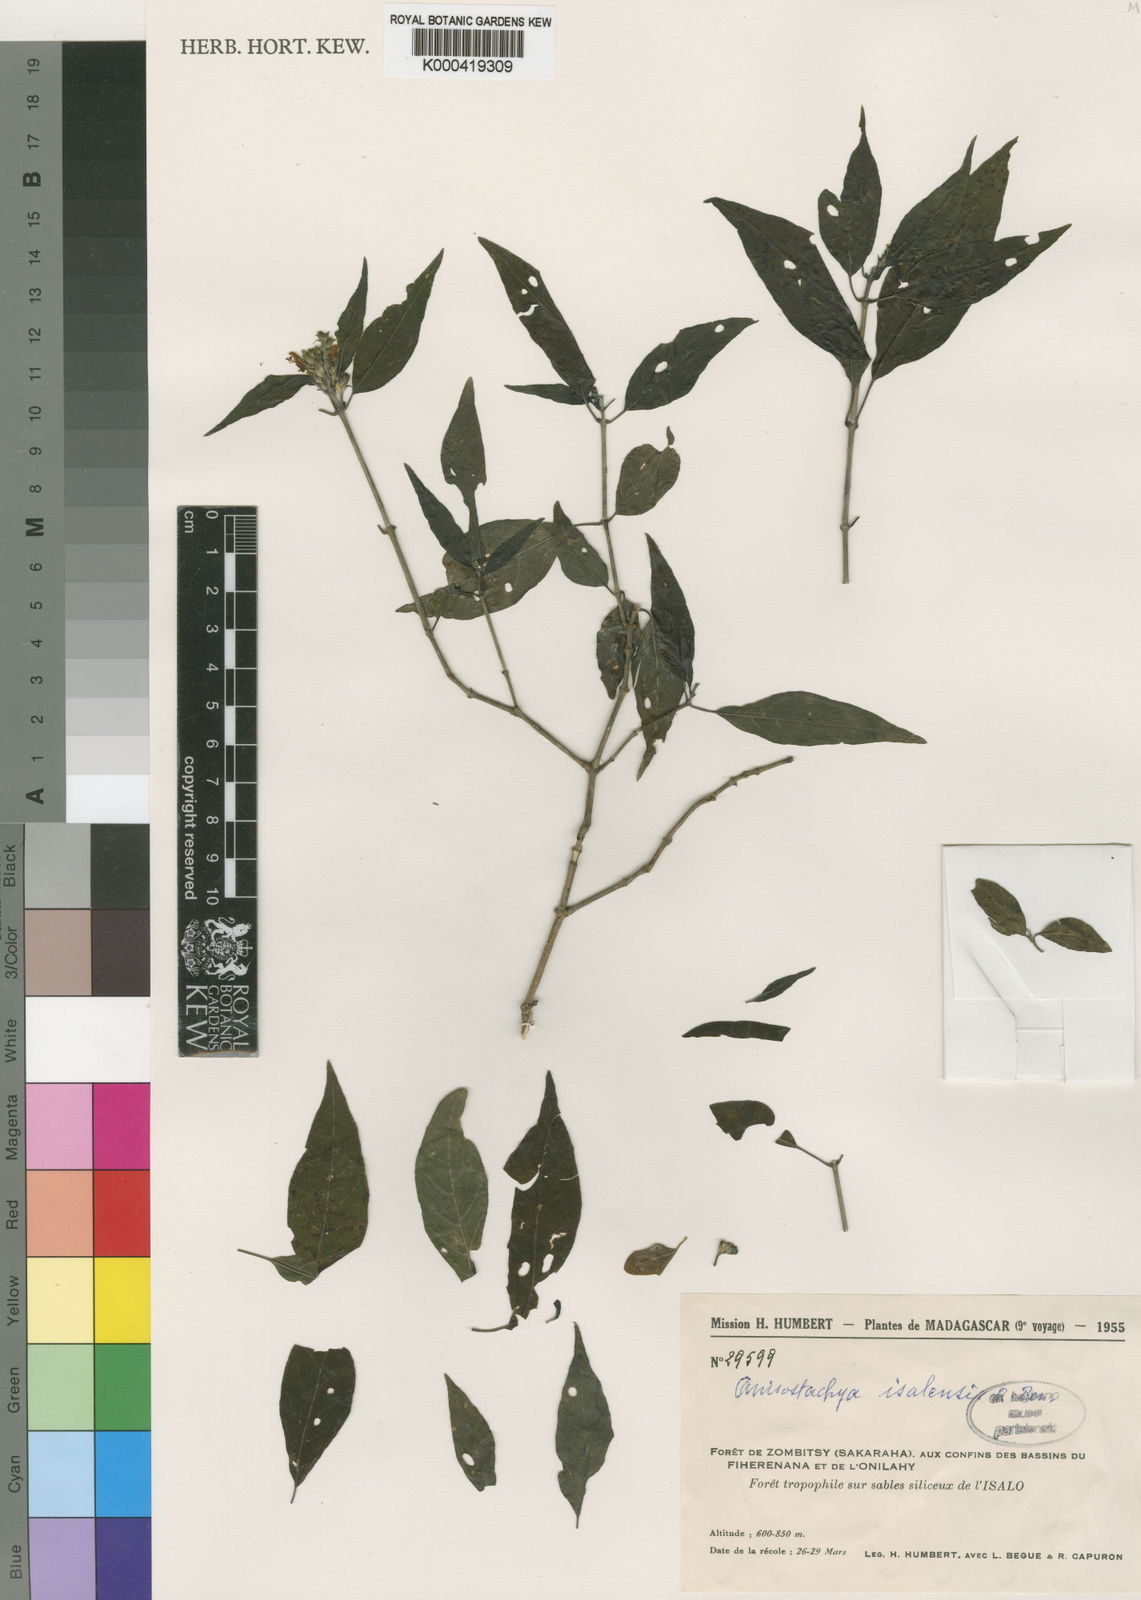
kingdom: Plantae
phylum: Tracheophyta
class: Magnoliopsida
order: Lamiales
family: Acanthaceae
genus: Justicia
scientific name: Justicia
